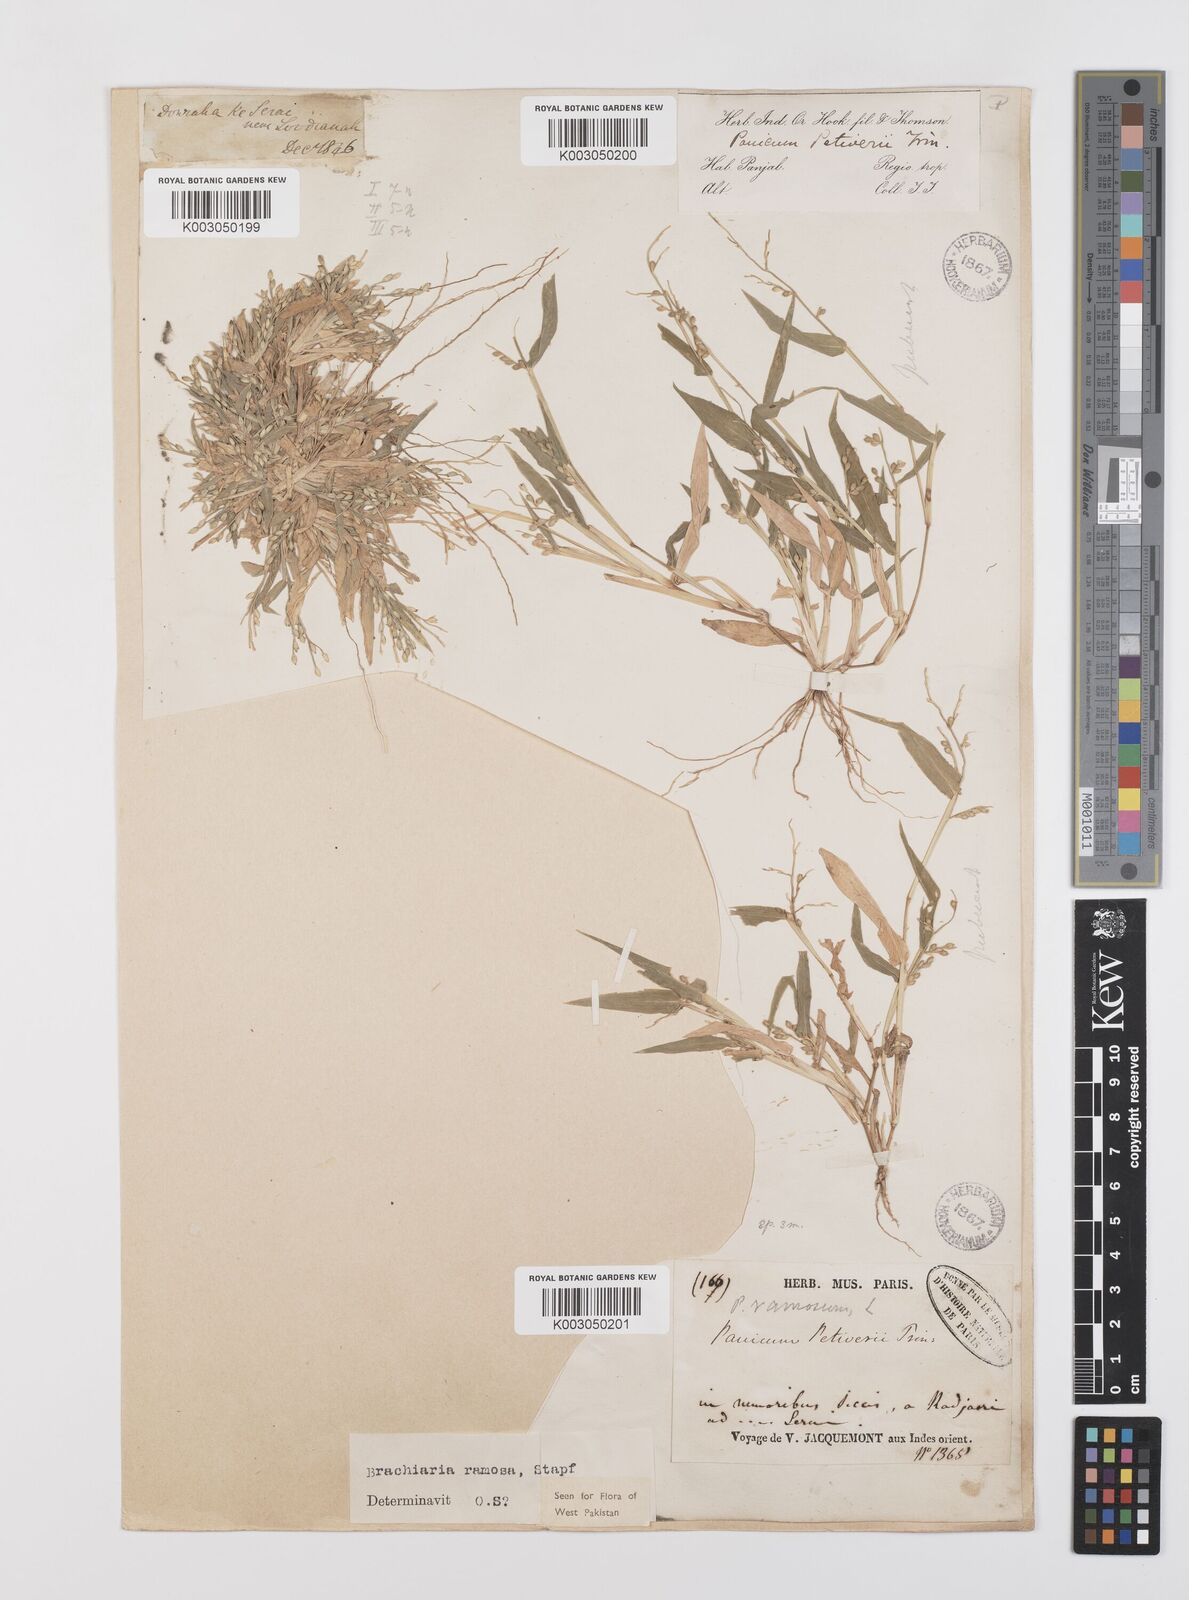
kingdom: Plantae
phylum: Tracheophyta
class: Liliopsida
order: Poales
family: Poaceae
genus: Urochloa
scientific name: Urochloa ramosa
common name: Browntop millet
